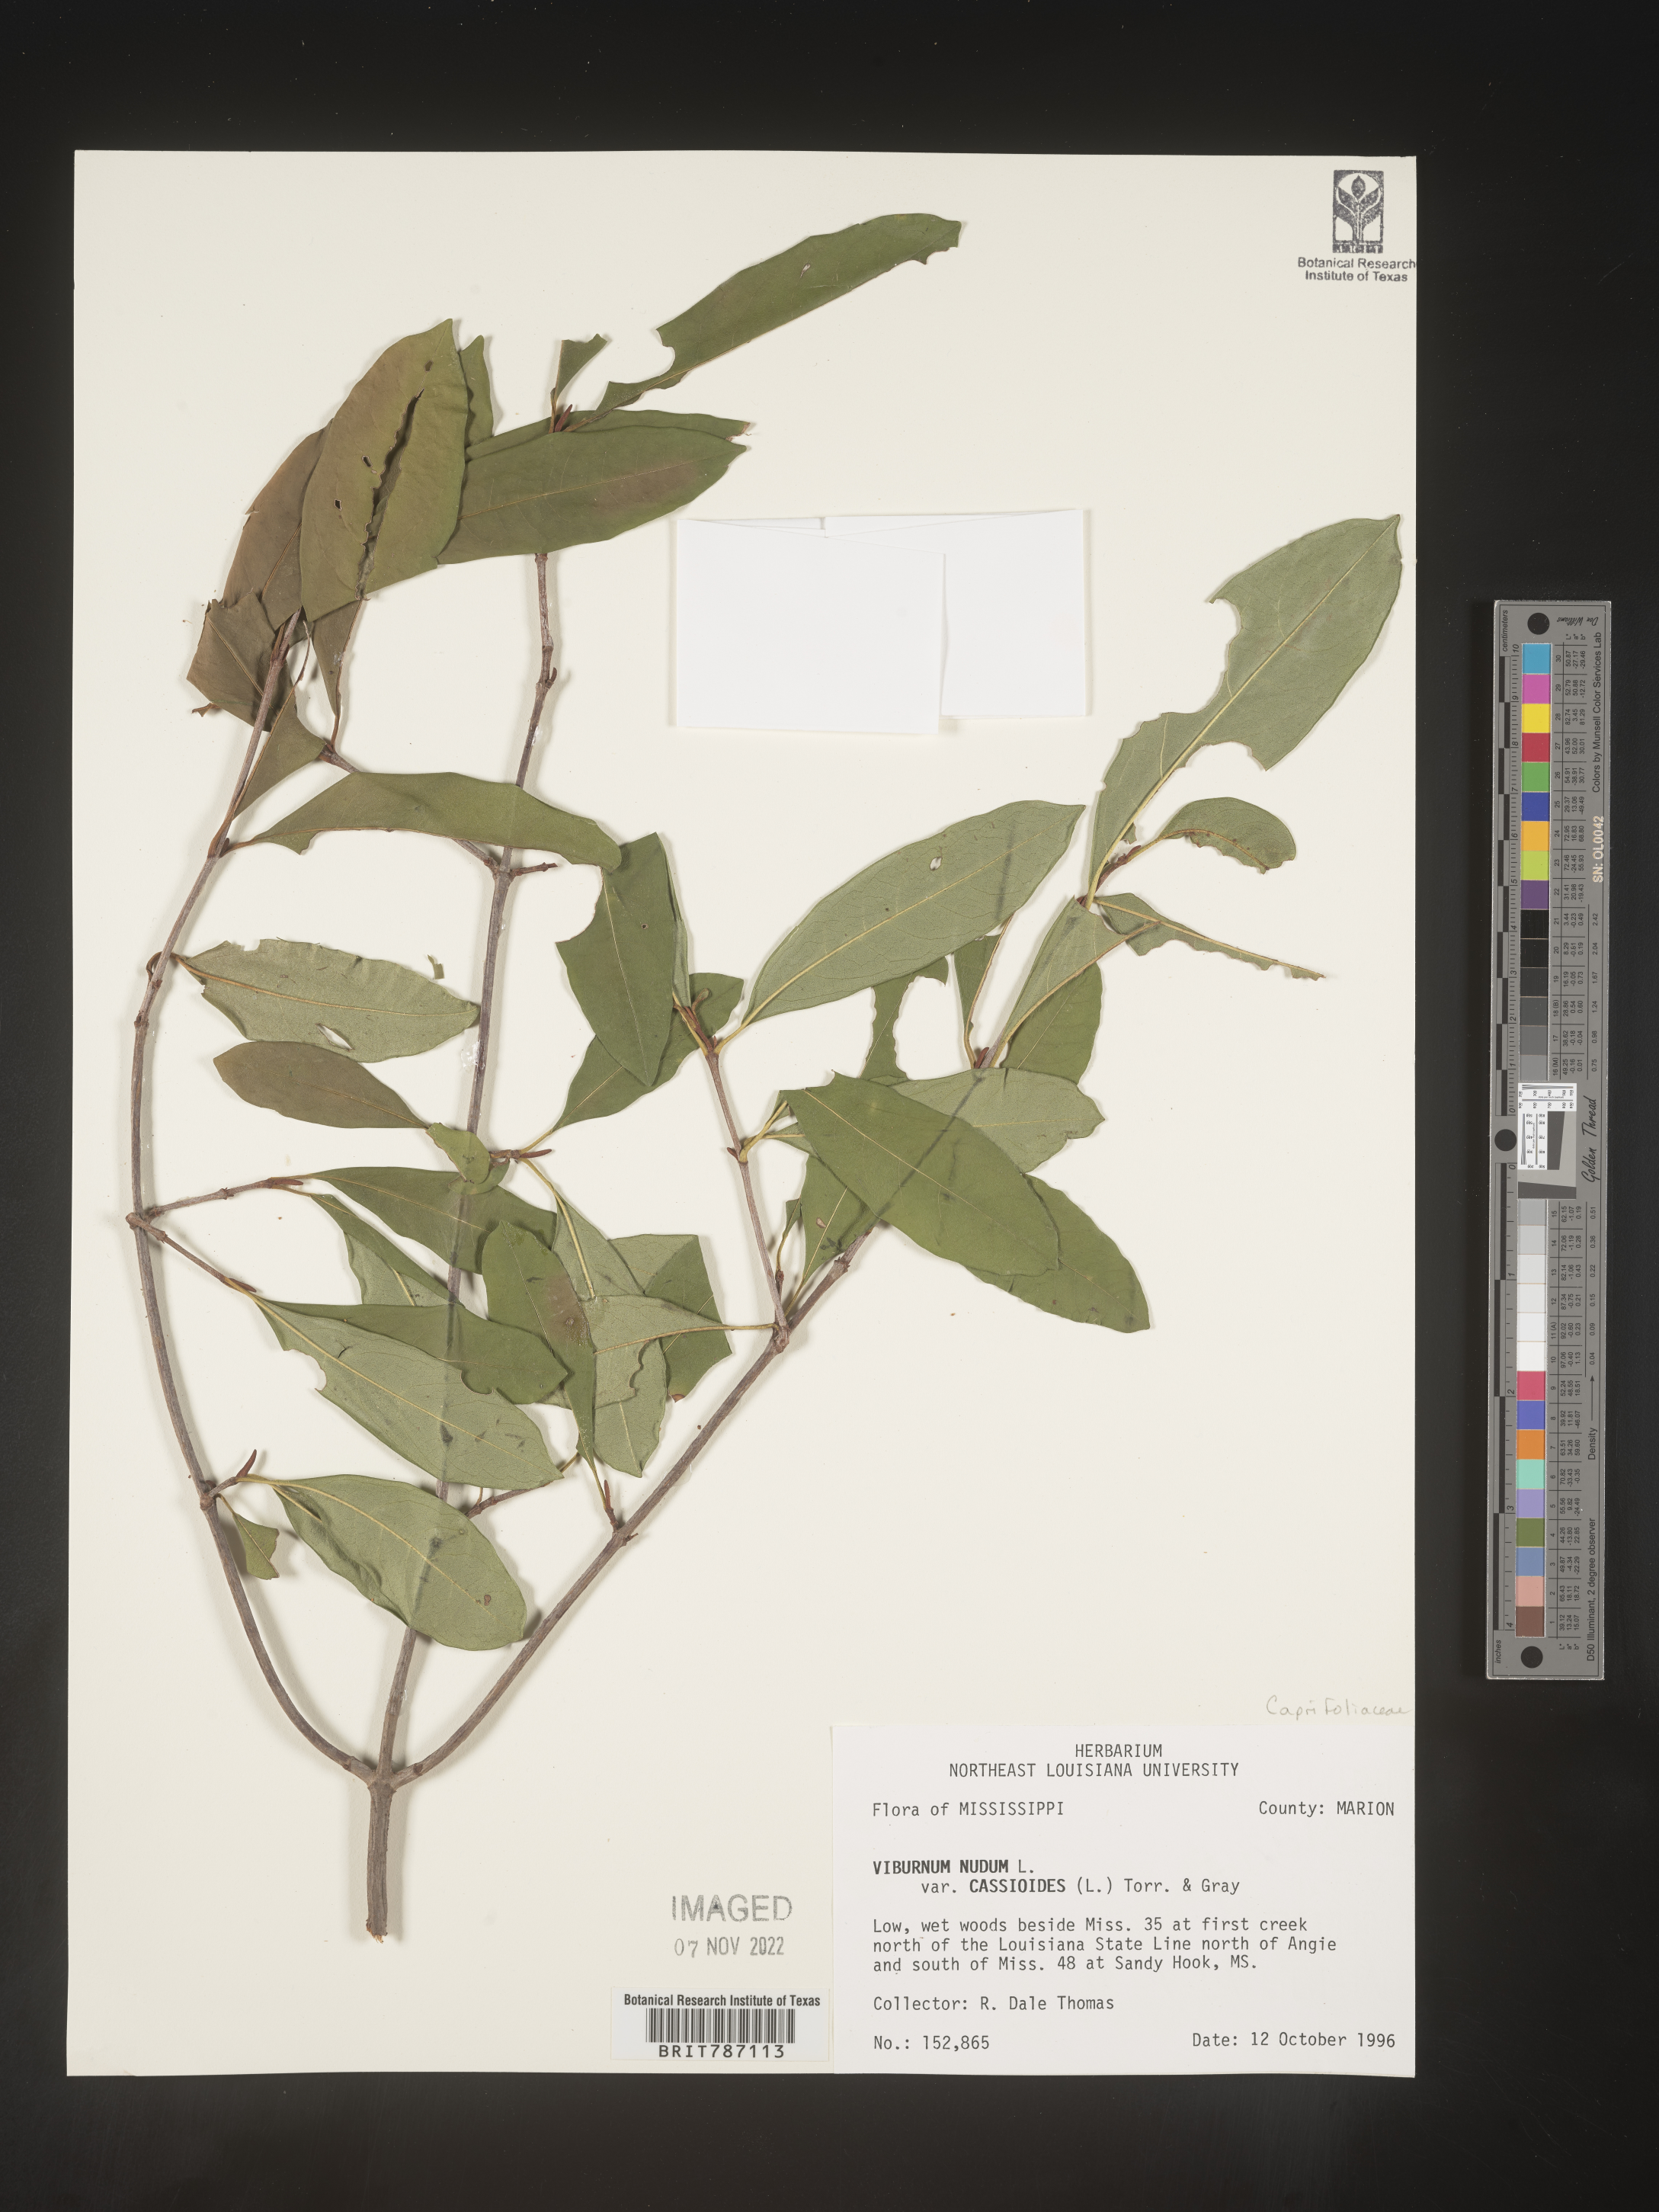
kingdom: Plantae
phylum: Tracheophyta
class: Magnoliopsida
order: Dipsacales
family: Viburnaceae
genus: Viburnum
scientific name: Viburnum nudum
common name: Possum haw
